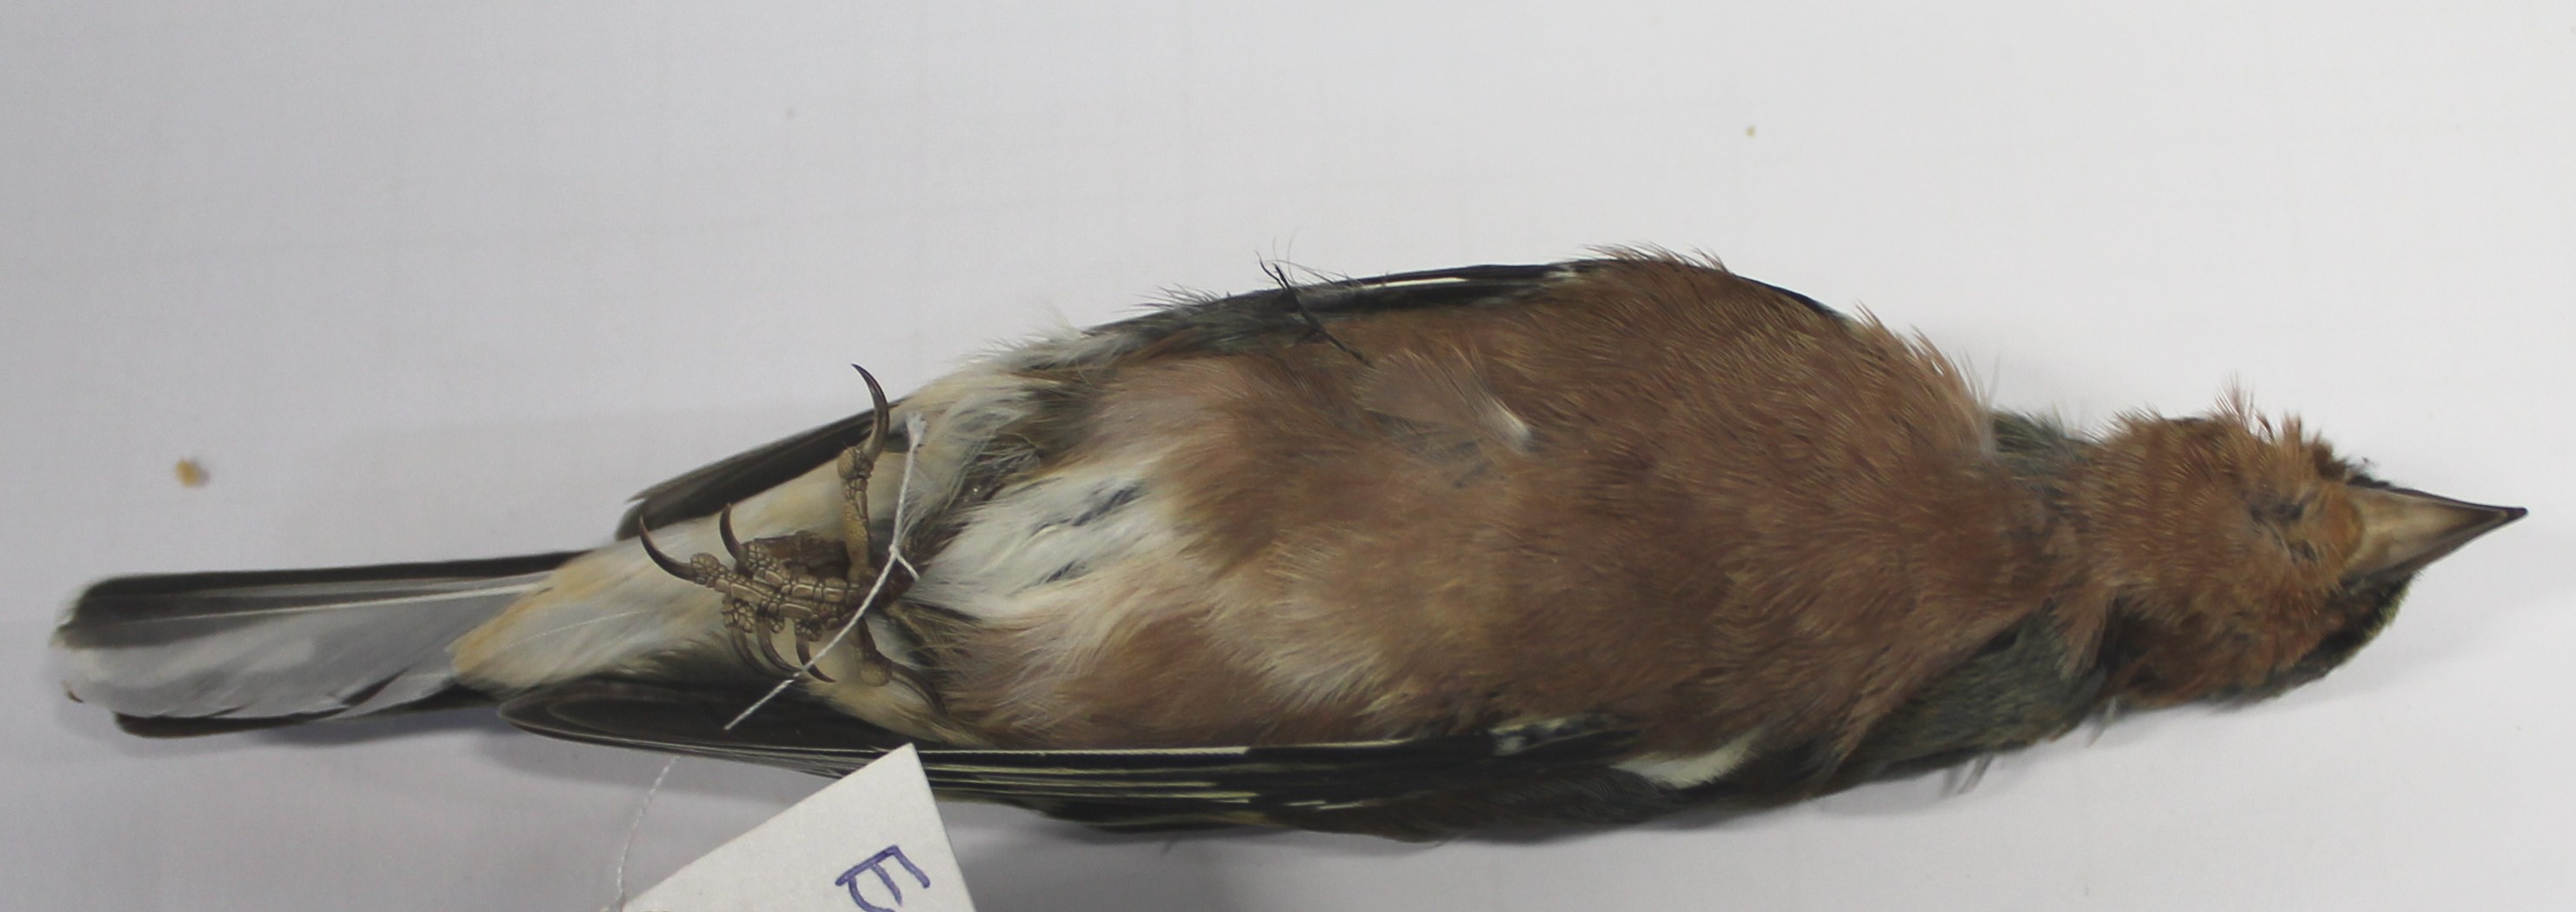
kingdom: Animalia
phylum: Chordata
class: Aves
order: Passeriformes
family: Fringillidae
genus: Fringilla
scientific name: Fringilla coelebs
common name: Common chaffinch
